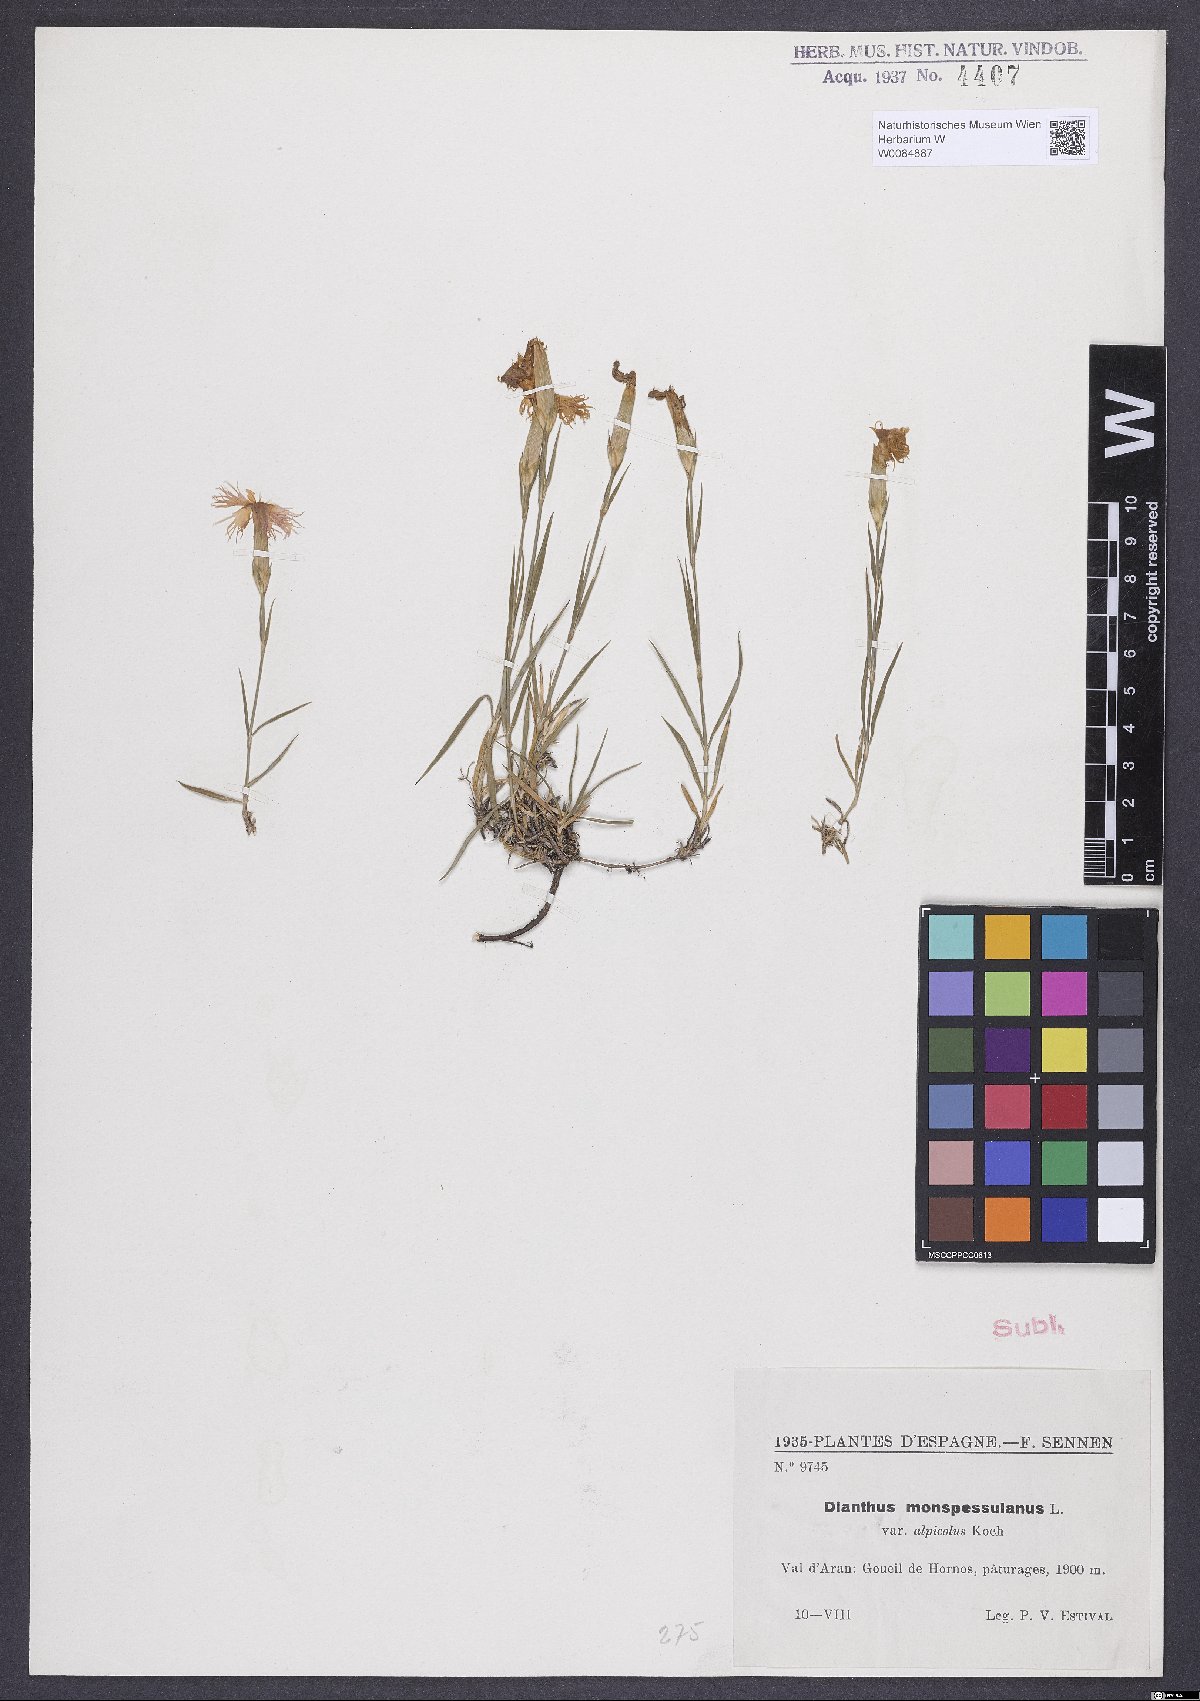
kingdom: Plantae
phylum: Tracheophyta
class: Magnoliopsida
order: Caryophyllales
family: Caryophyllaceae
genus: Dianthus
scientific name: Dianthus hyssopifolius
